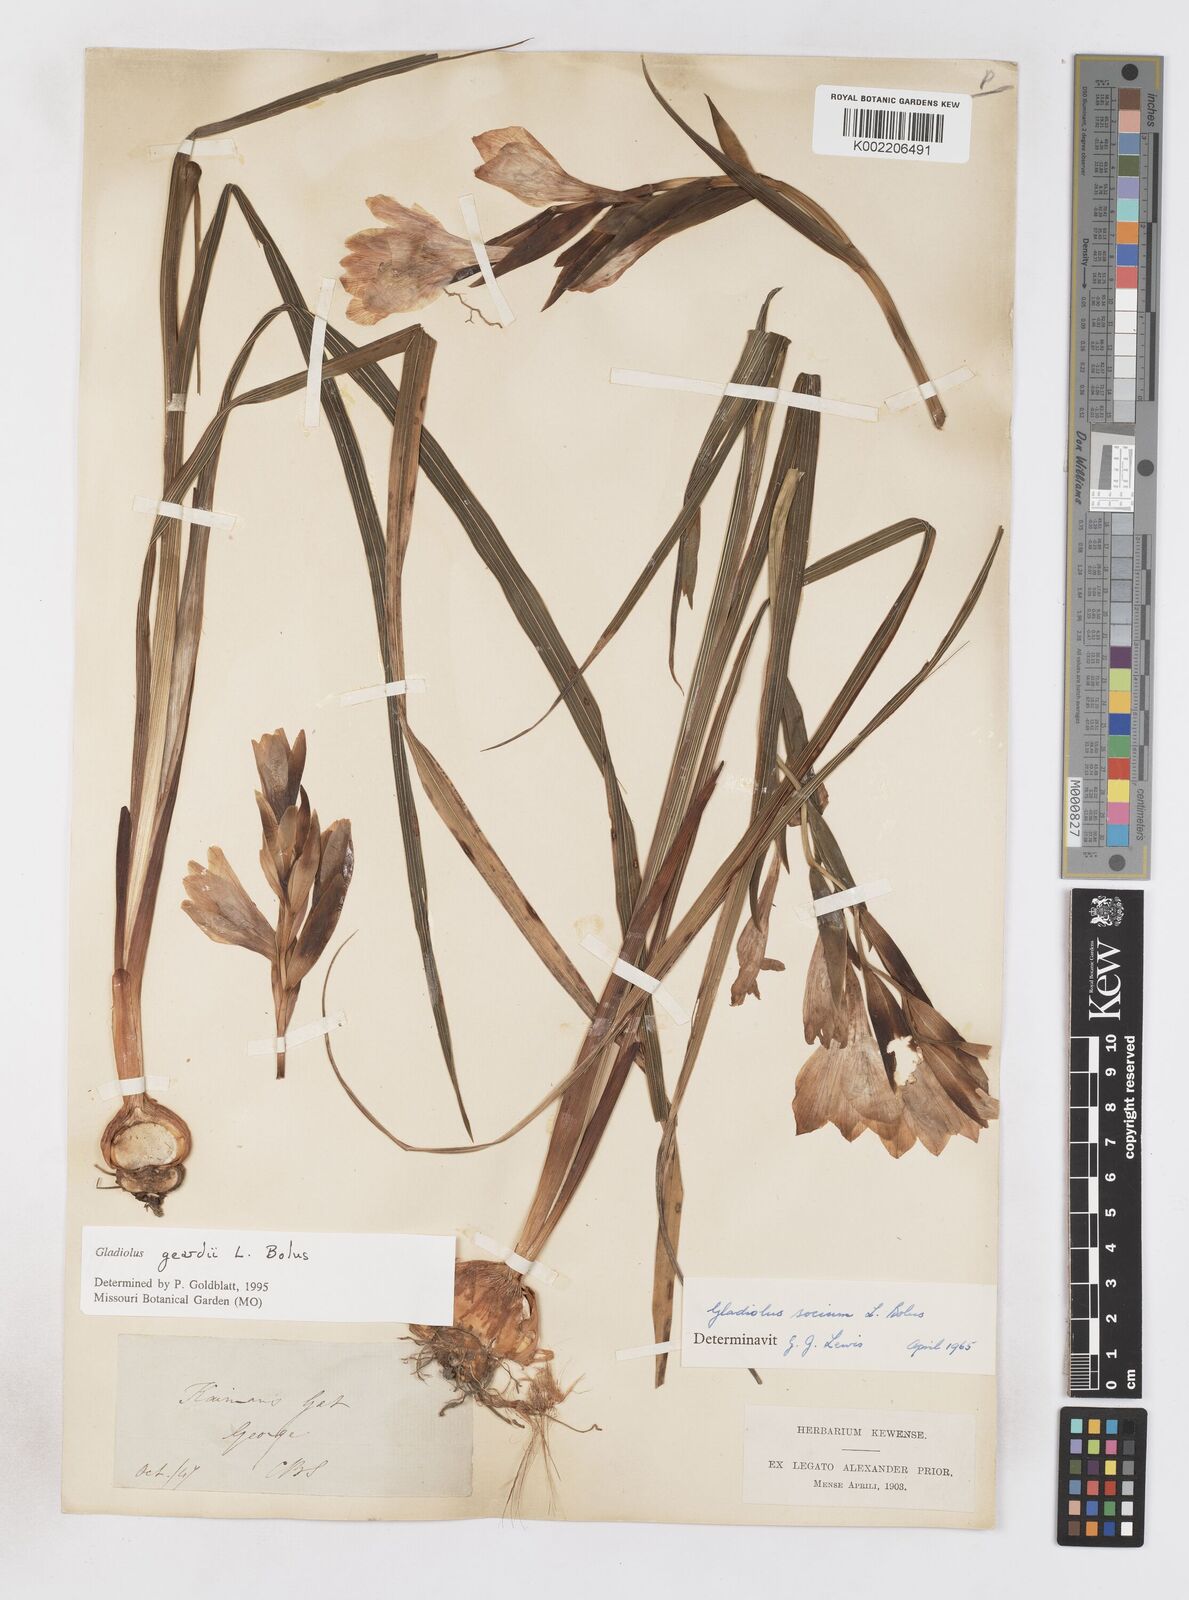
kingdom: Plantae
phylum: Tracheophyta
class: Liliopsida
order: Asparagales
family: Iridaceae
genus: Gladiolus
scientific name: Gladiolus geardii
